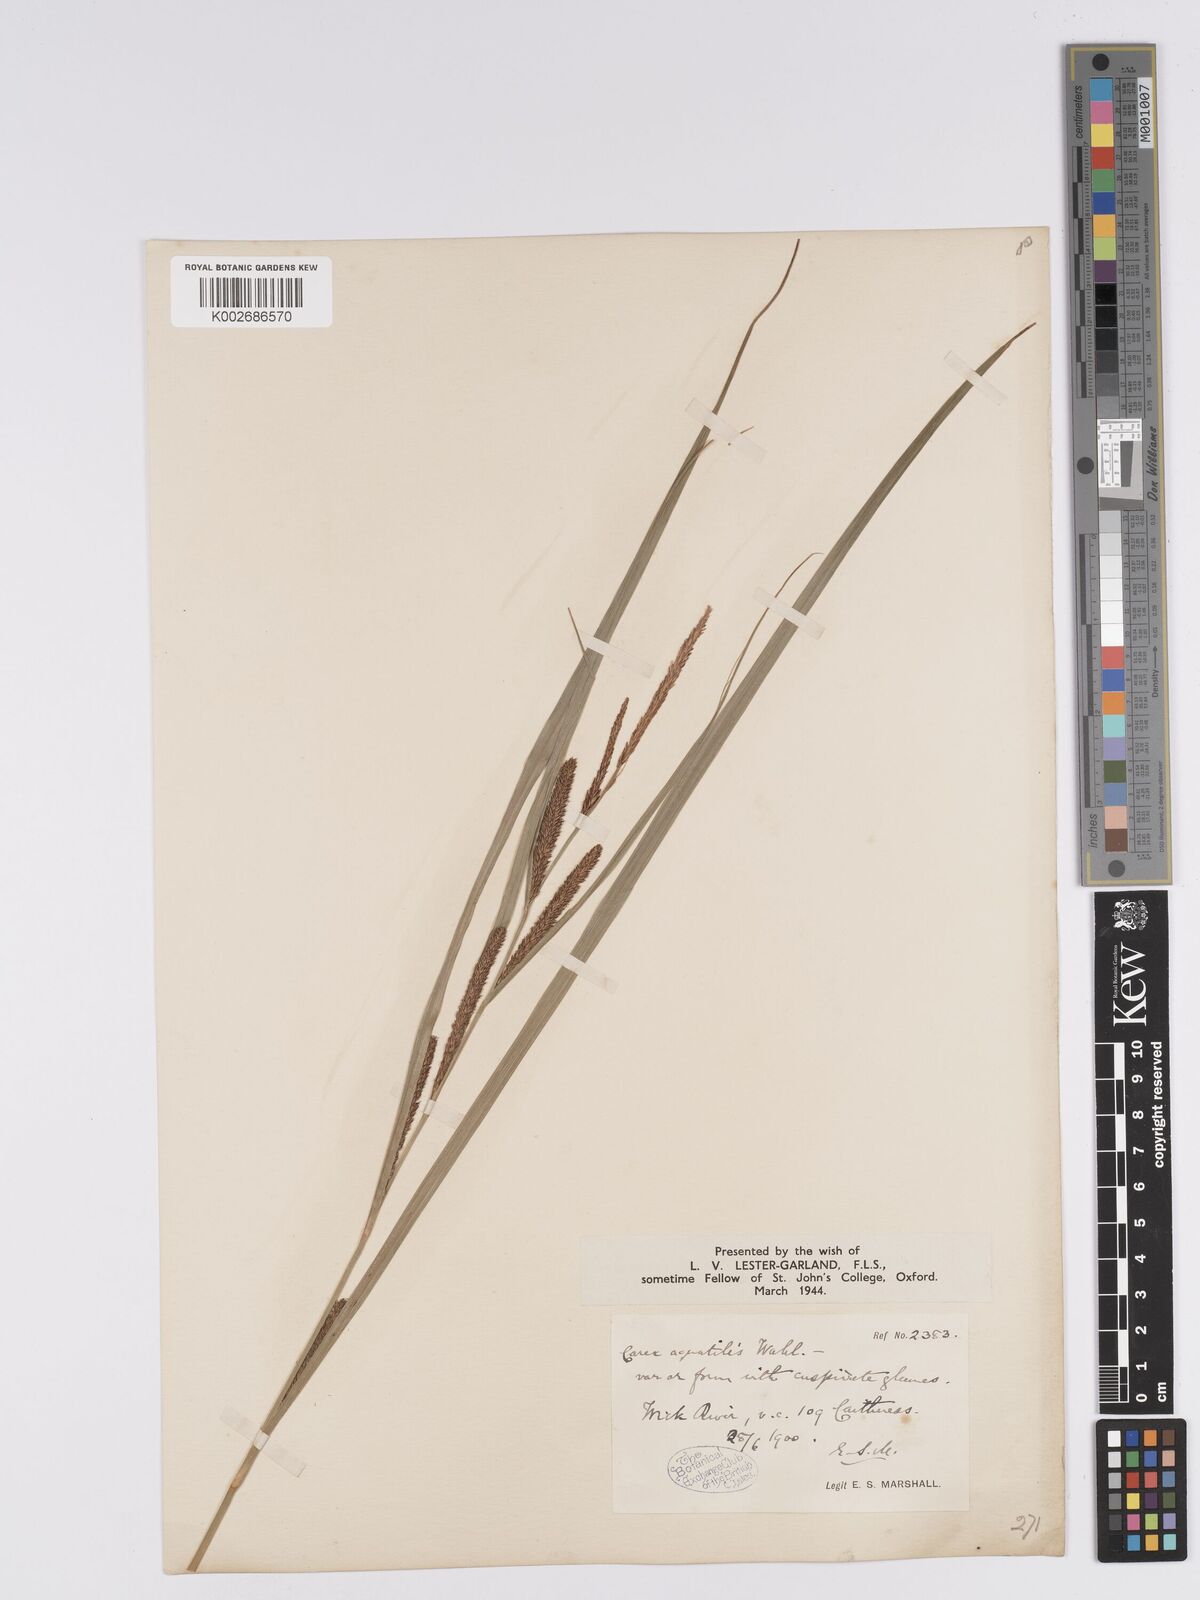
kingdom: Plantae
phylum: Tracheophyta
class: Liliopsida
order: Poales
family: Cyperaceae
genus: Carex
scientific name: Carex aquatilis
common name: Water sedge
